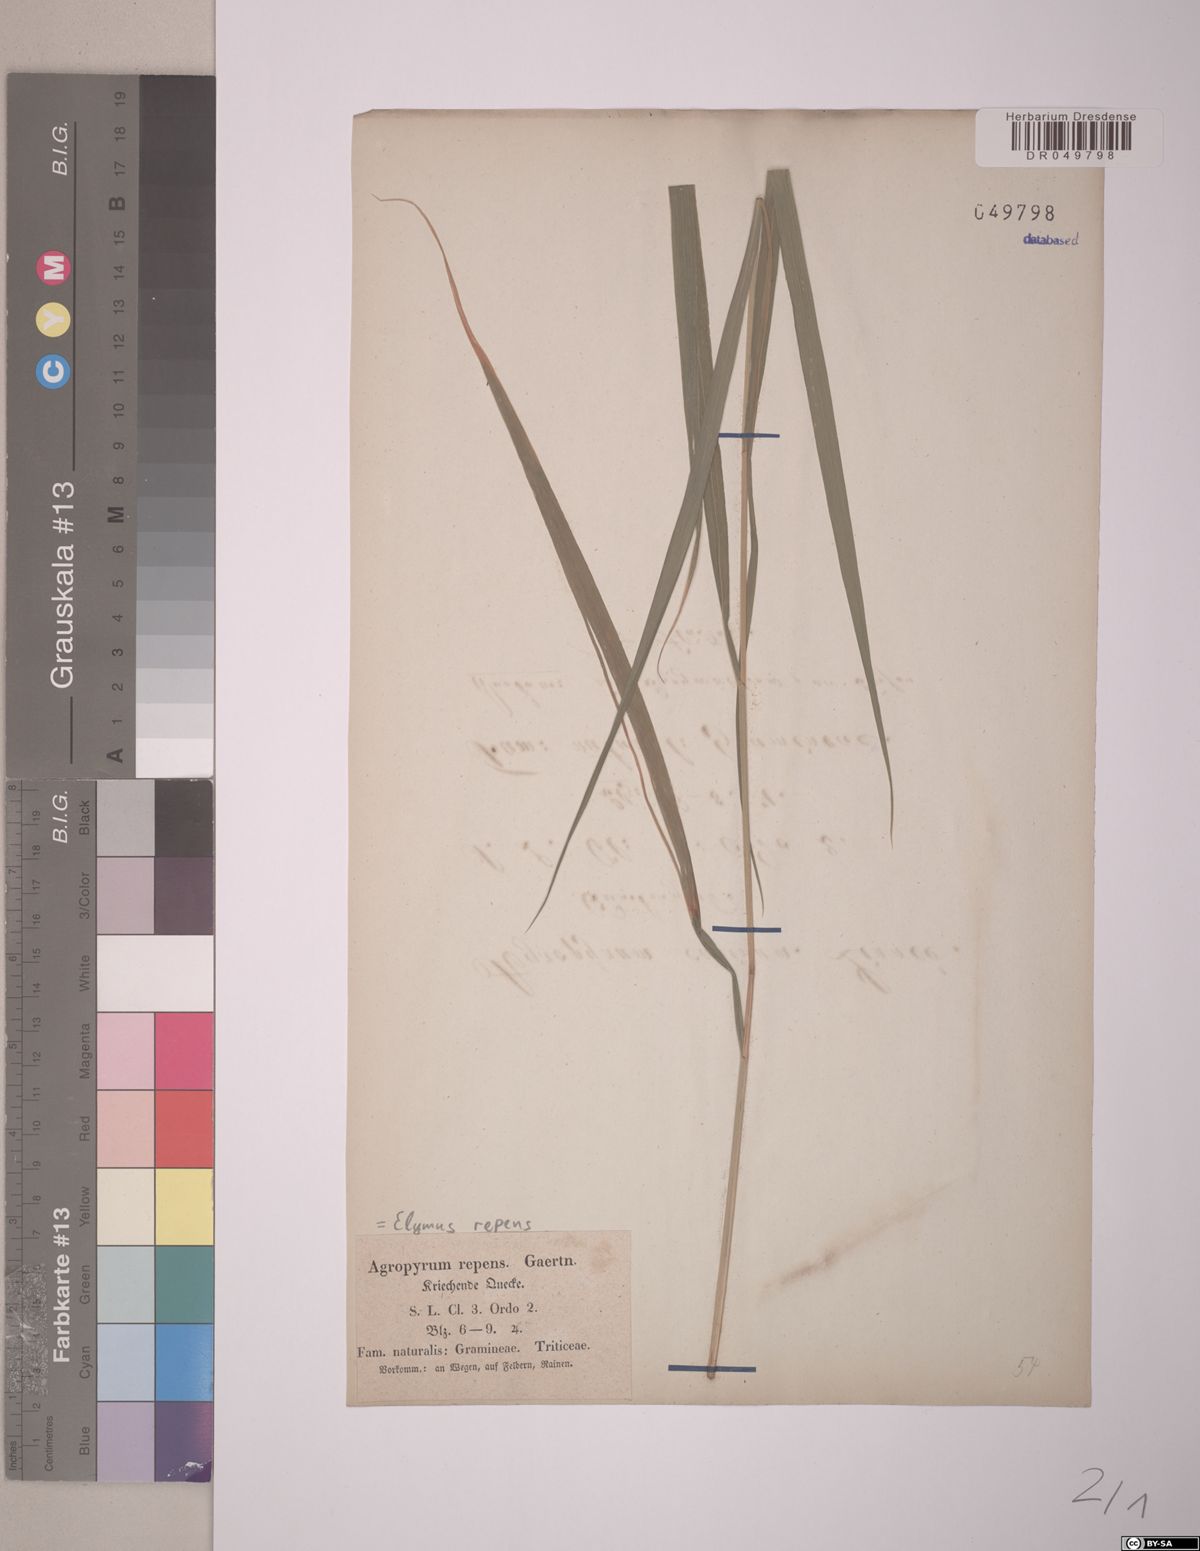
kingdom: Plantae
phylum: Tracheophyta
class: Liliopsida
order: Poales
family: Poaceae
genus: Elymus
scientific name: Elymus repens
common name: Quackgrass
